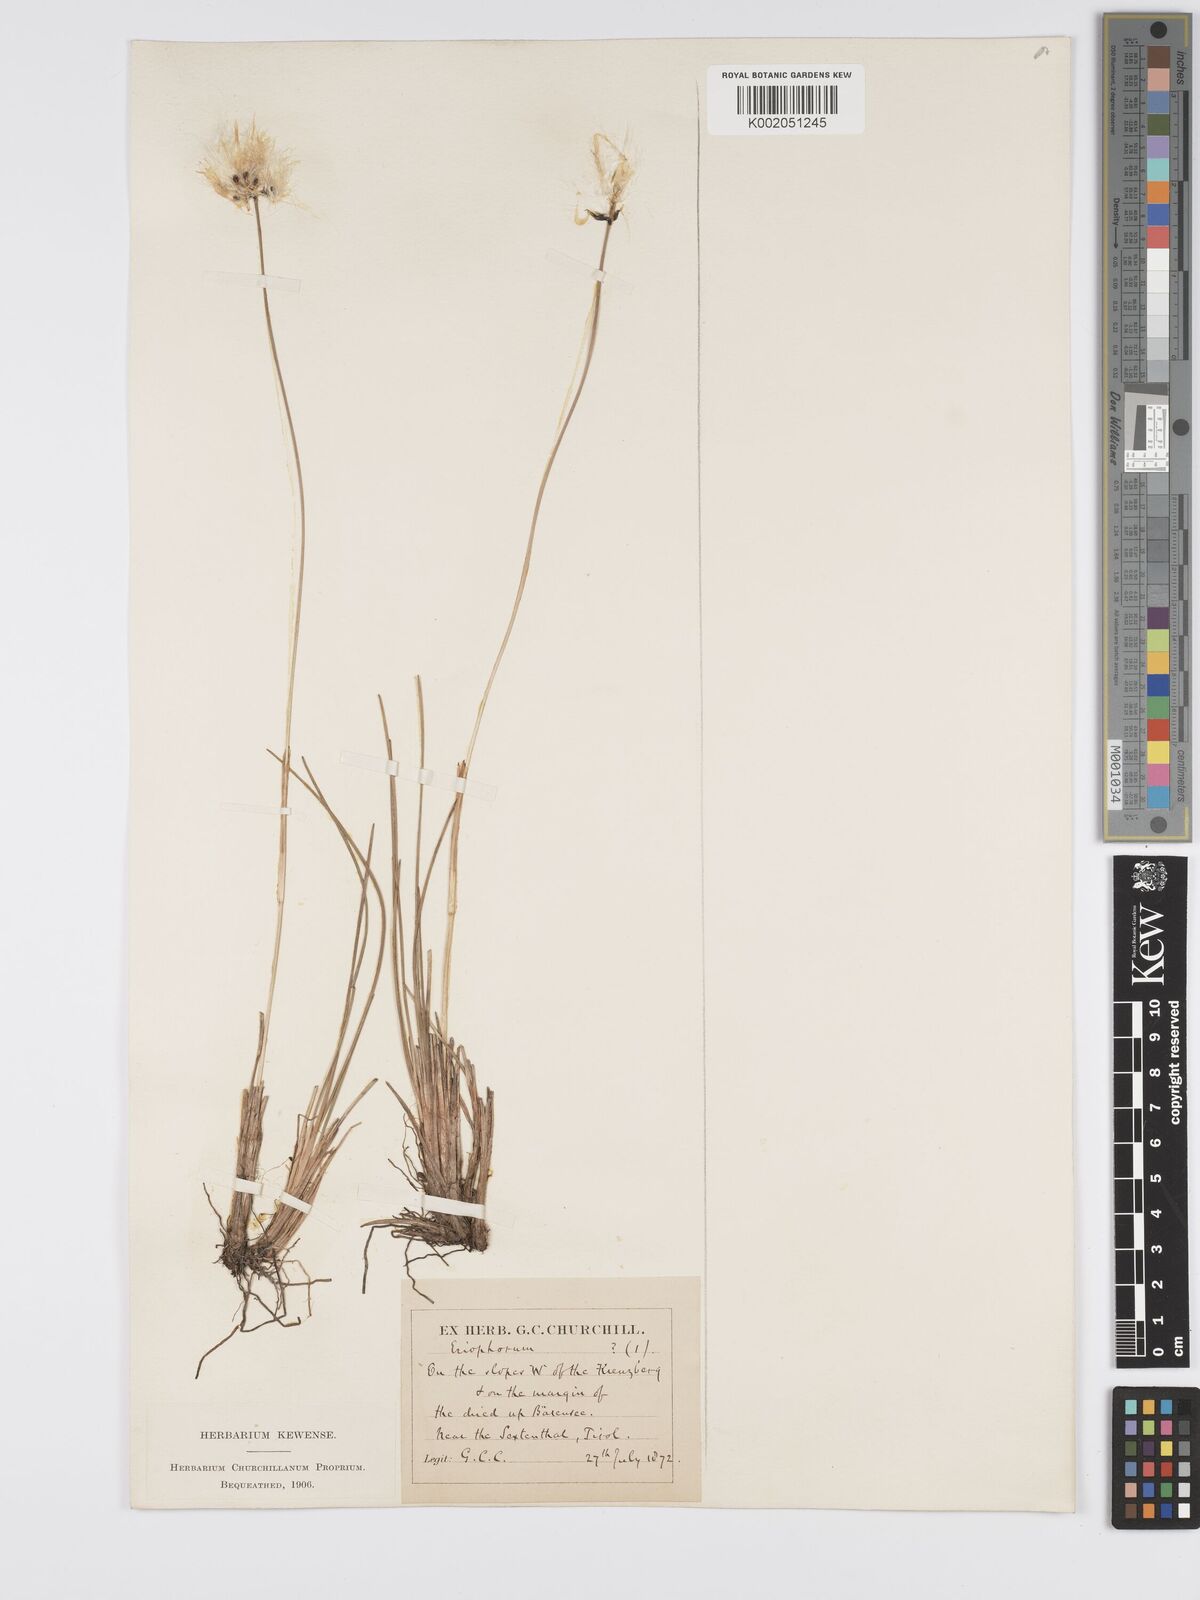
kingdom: Plantae
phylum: Tracheophyta
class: Liliopsida
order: Poales
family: Cyperaceae
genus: Eriophorum
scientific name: Eriophorum latifolium
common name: Broad-leaved cottongrass
